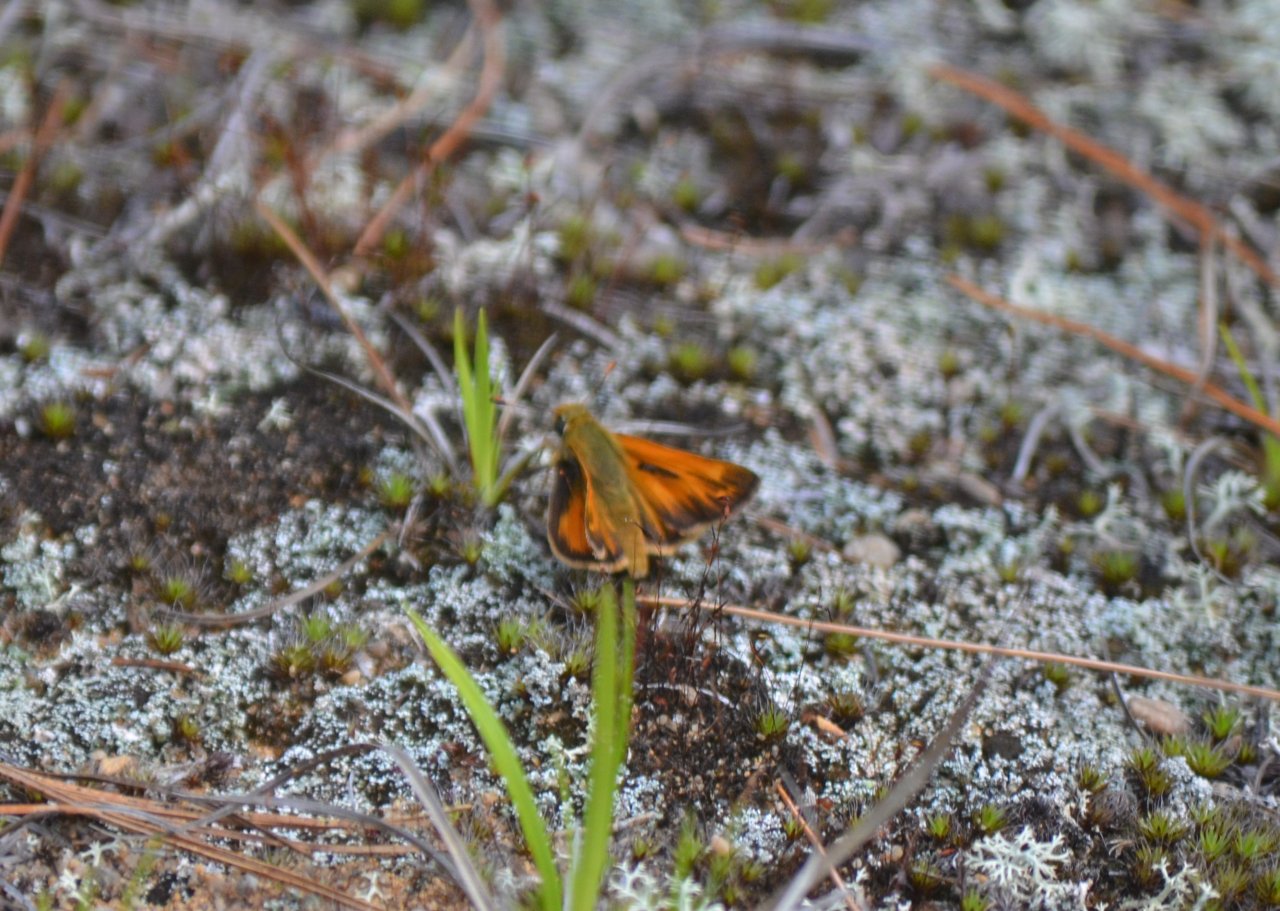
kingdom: Animalia
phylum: Arthropoda
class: Insecta
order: Lepidoptera
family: Hesperiidae
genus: Lon
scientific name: Lon hobomok
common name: Hobomok Skipper
